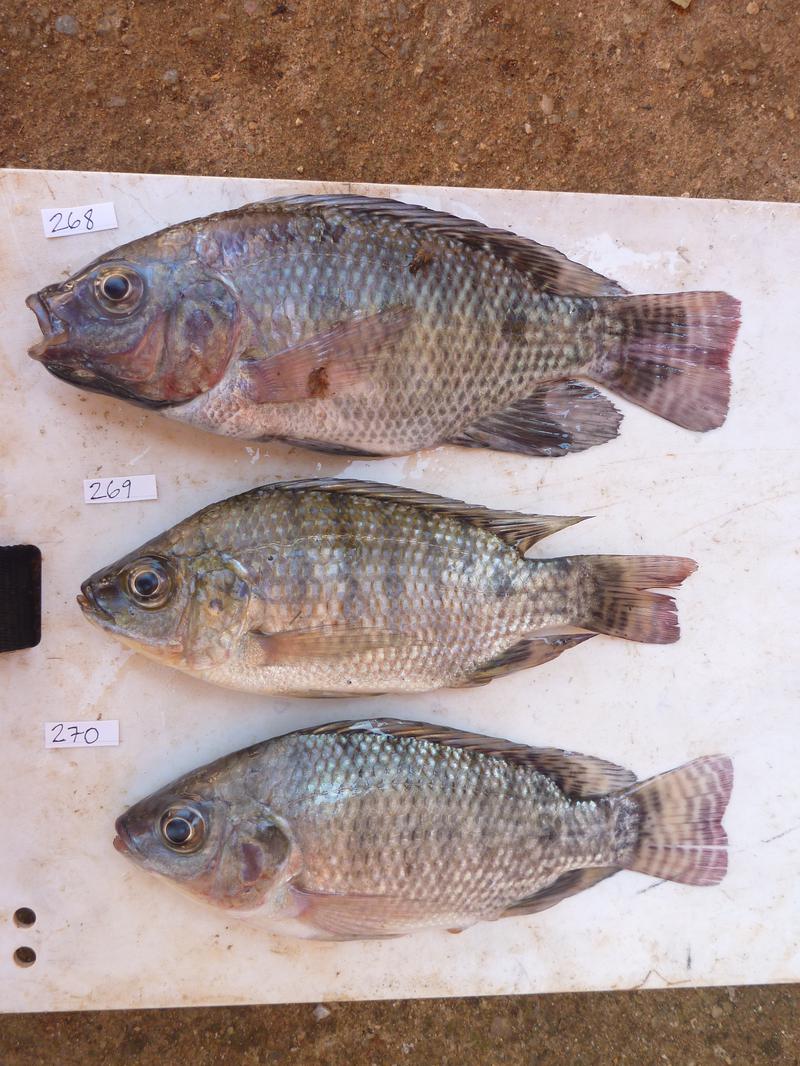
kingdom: Animalia
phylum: Chordata
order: Perciformes
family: Cichlidae
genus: Oreochromis
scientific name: Oreochromis niloticus
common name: Nile tilapia
